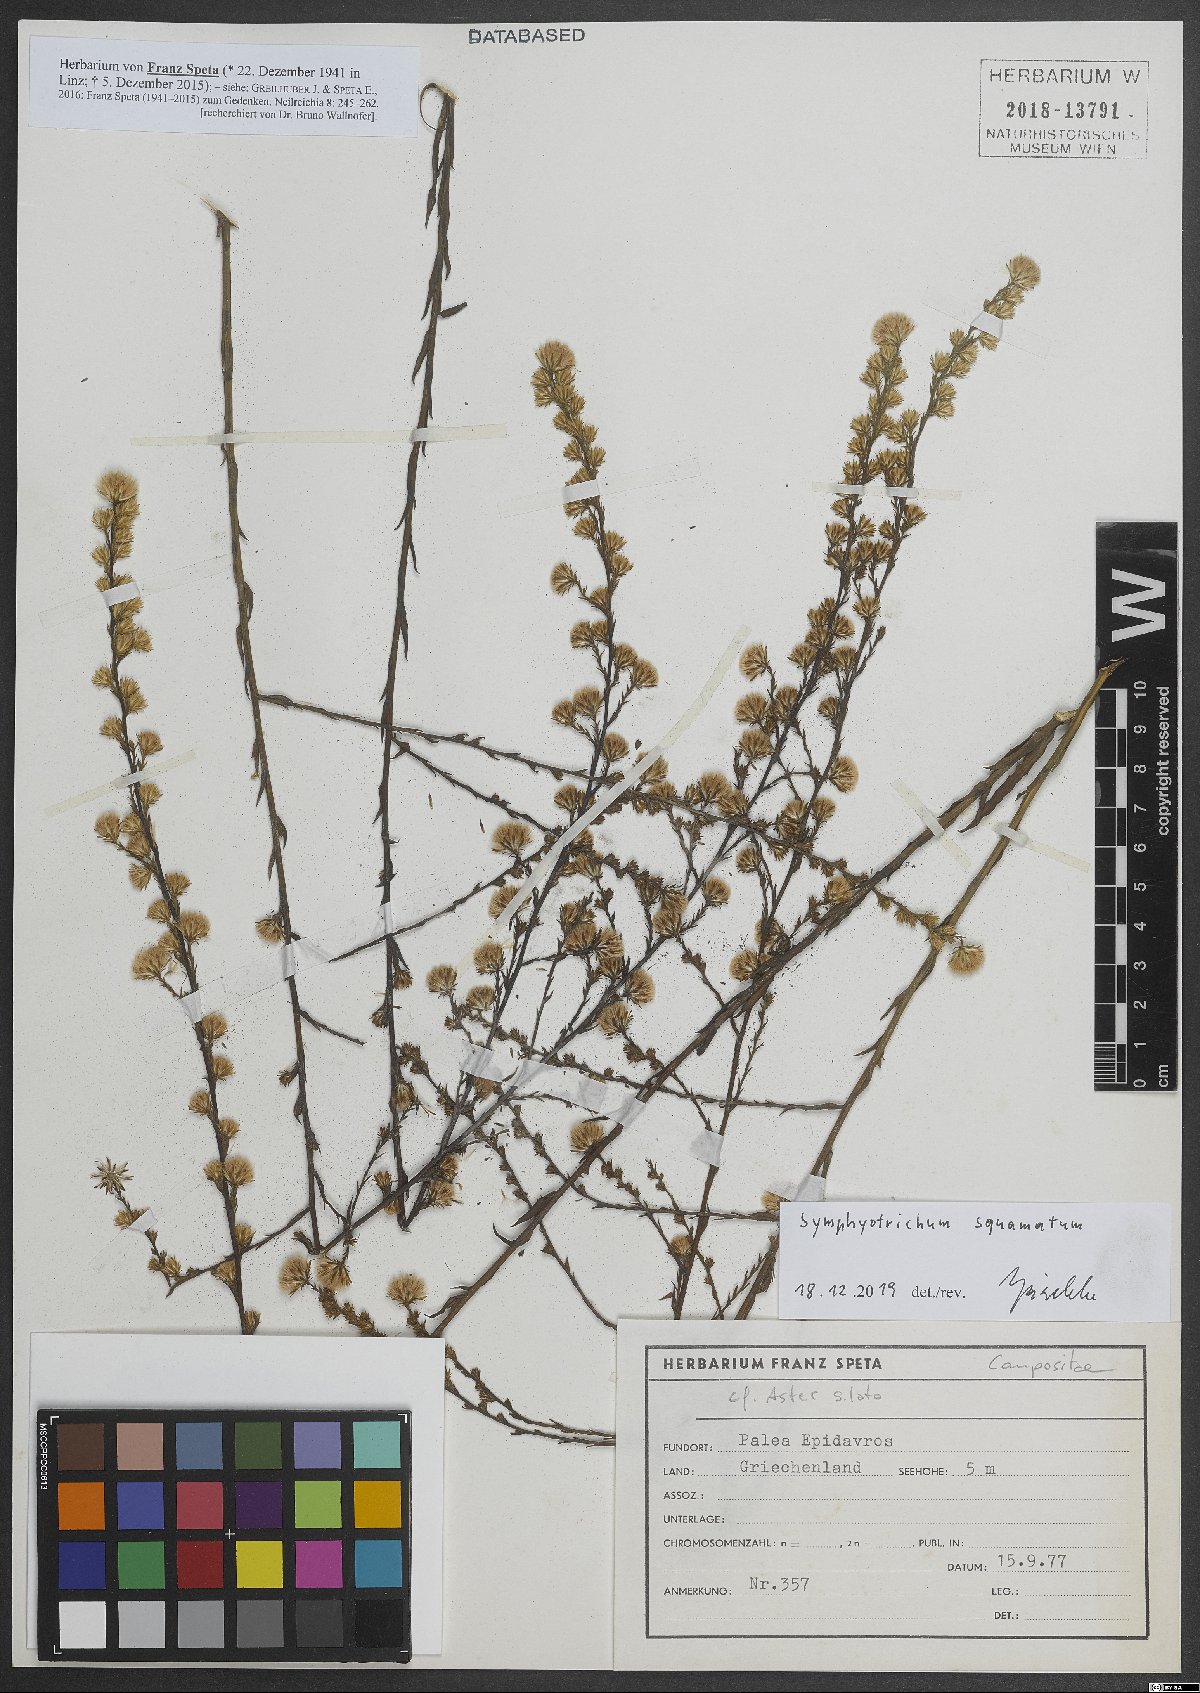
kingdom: Plantae
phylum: Tracheophyta
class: Magnoliopsida
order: Asterales
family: Asteraceae
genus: Symphyotrichum
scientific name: Symphyotrichum squamatum
